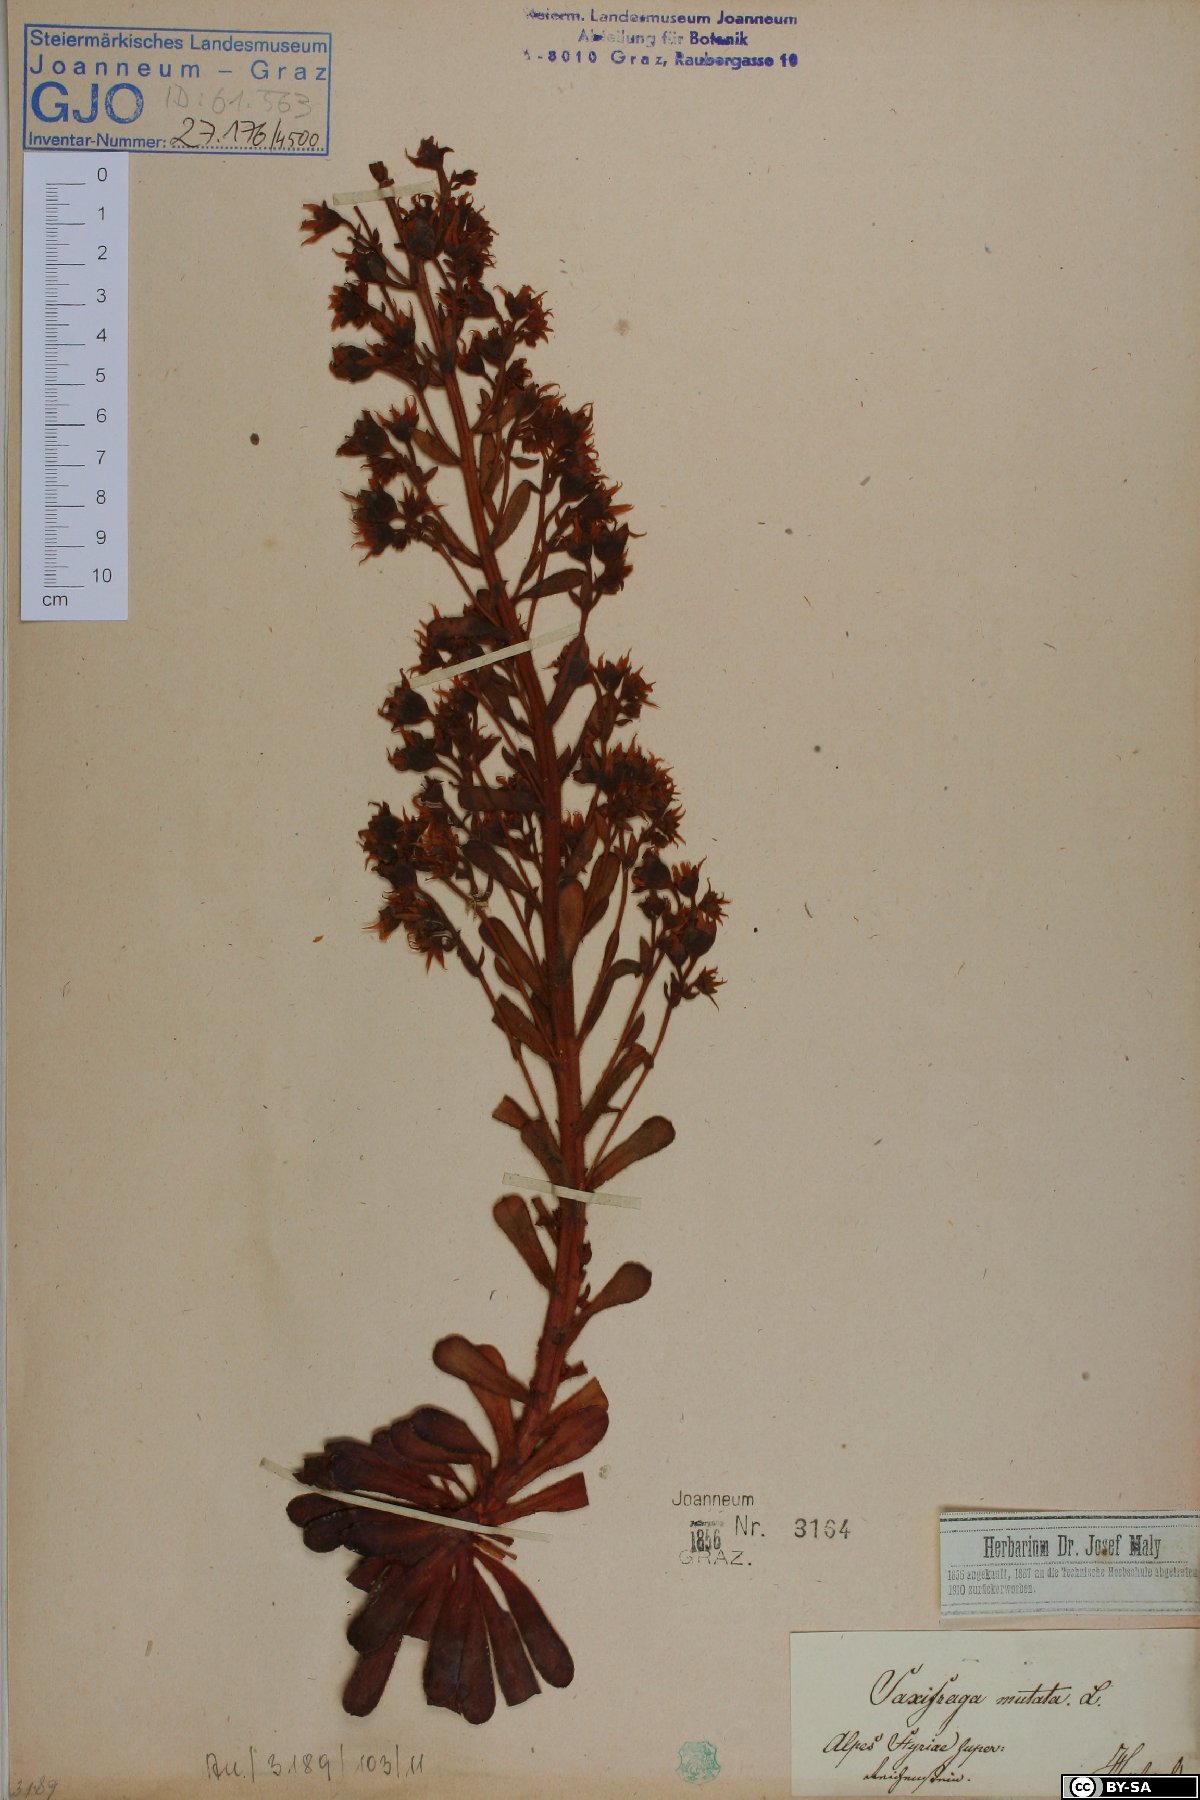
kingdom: Plantae
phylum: Tracheophyta
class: Magnoliopsida
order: Saxifragales
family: Saxifragaceae
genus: Saxifraga
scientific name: Saxifraga mutata
